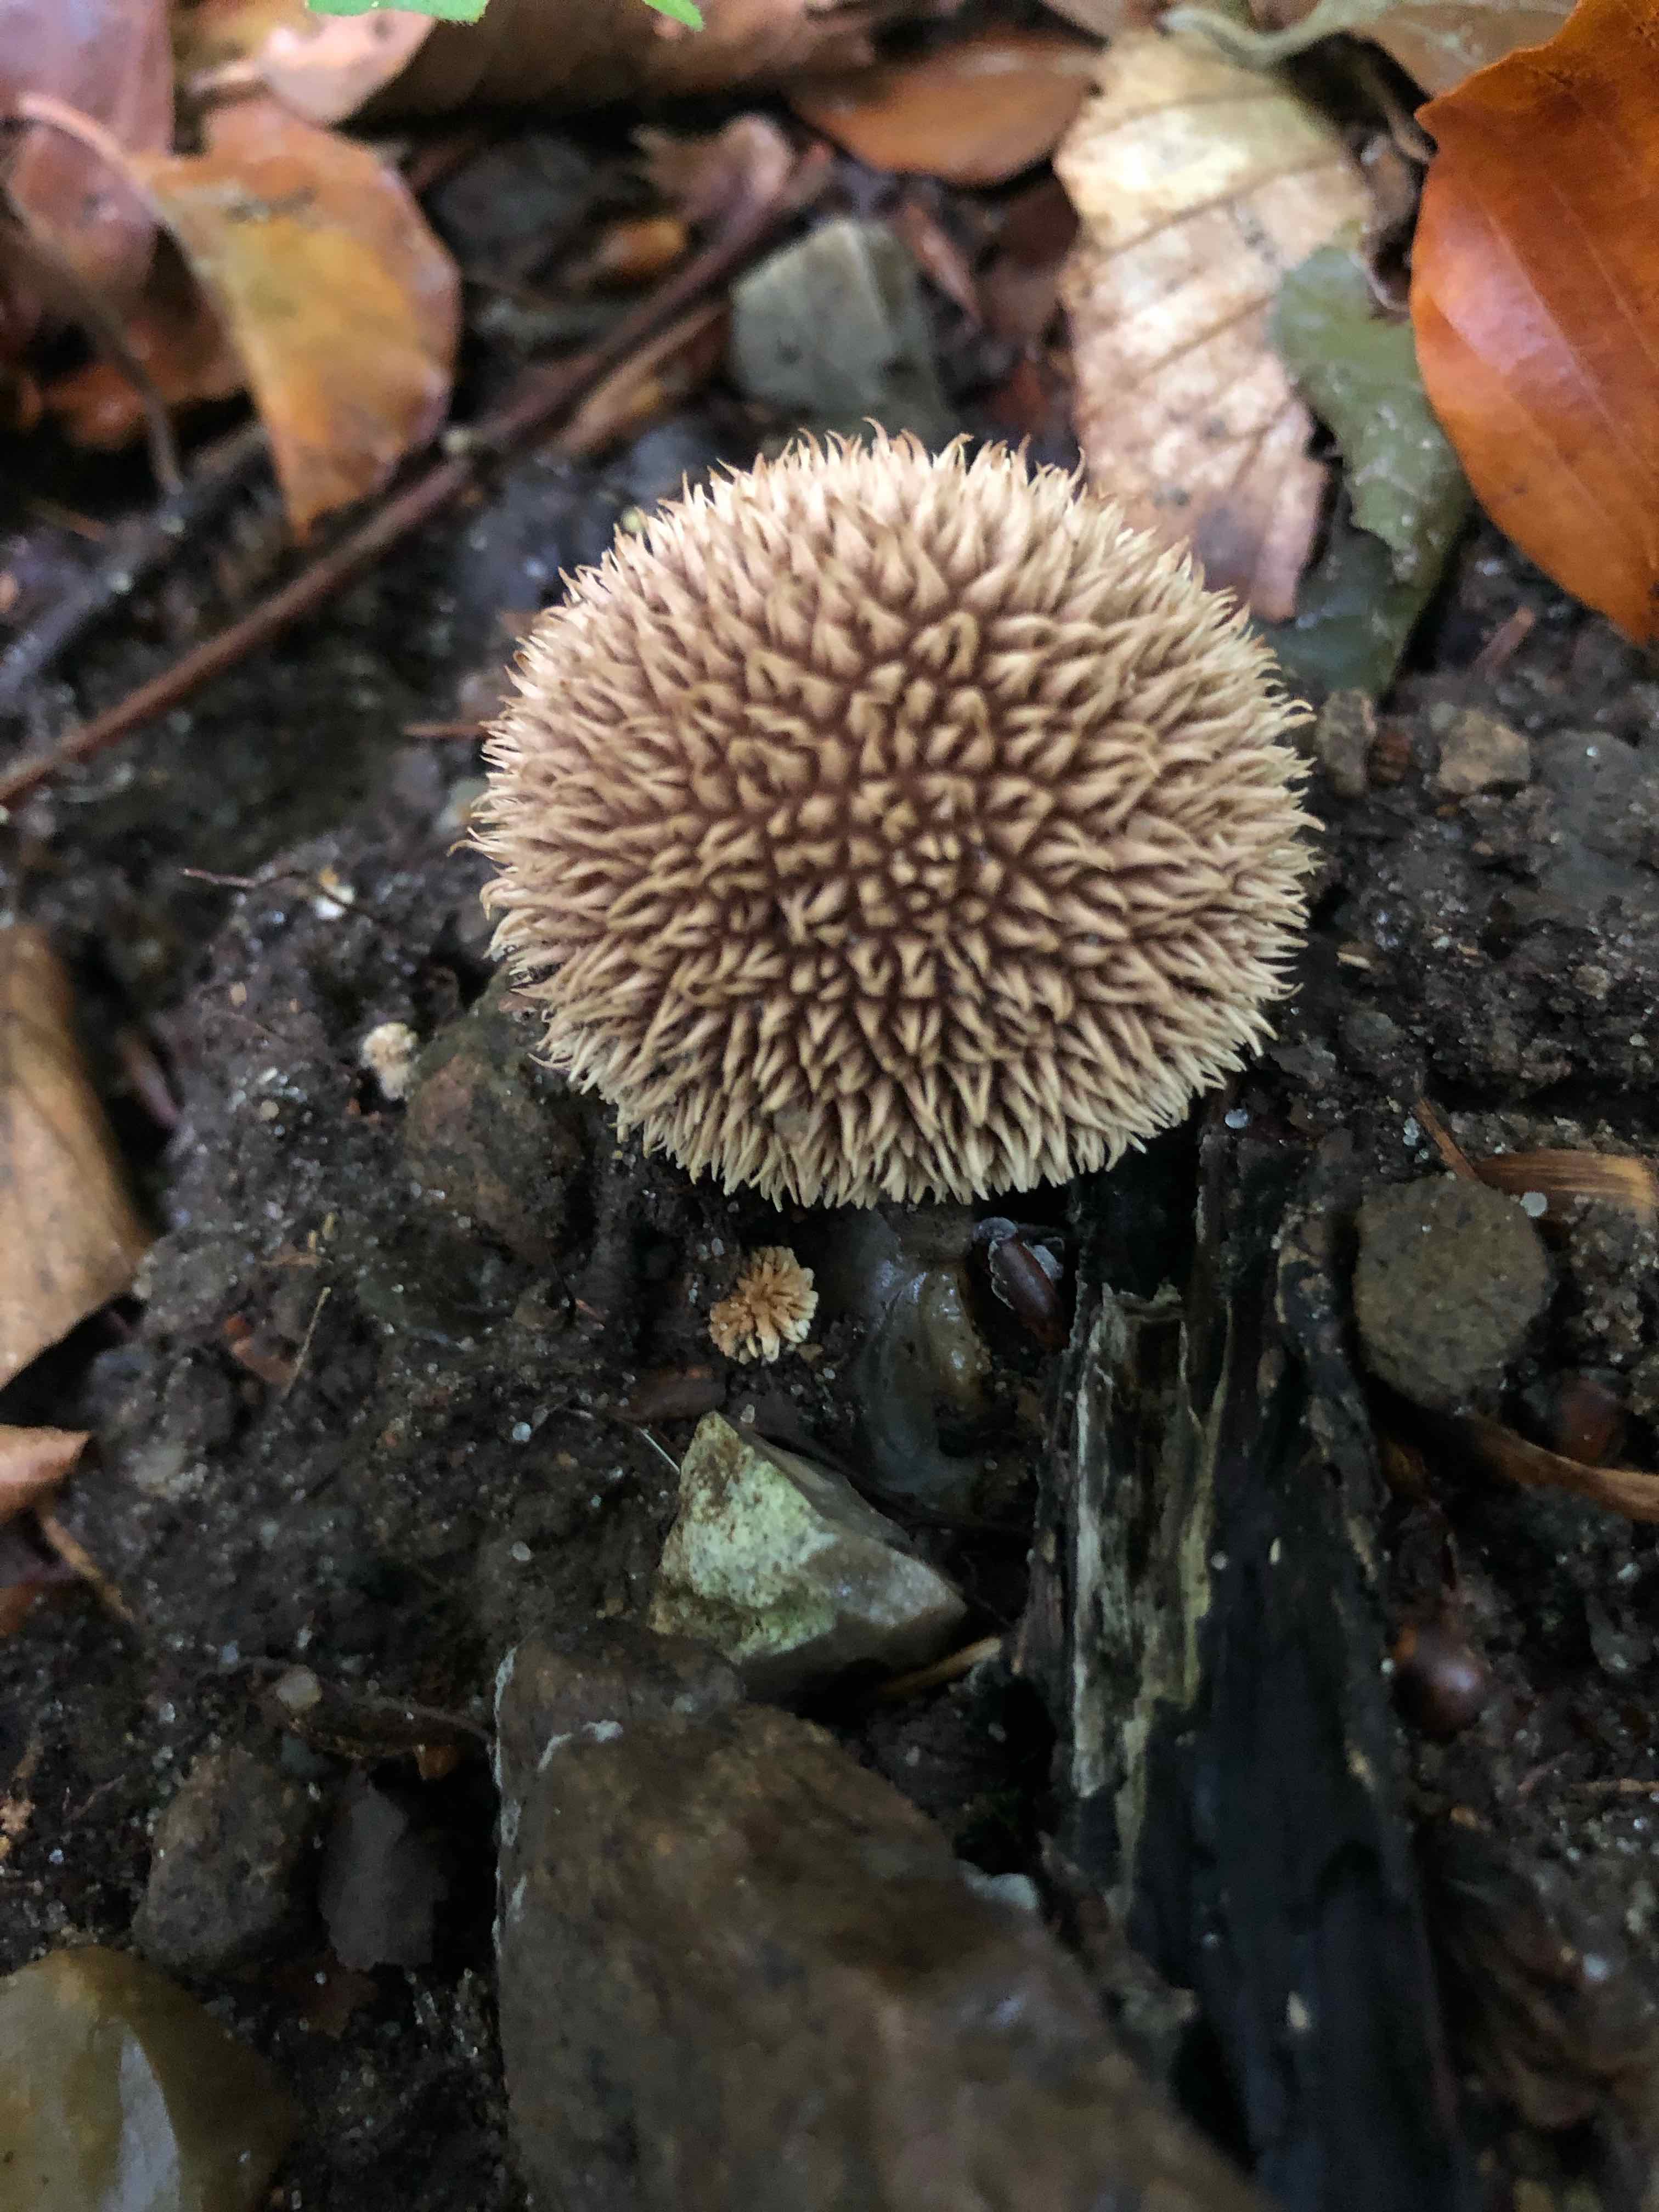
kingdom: Fungi
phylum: Basidiomycota
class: Agaricomycetes
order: Agaricales
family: Lycoperdaceae
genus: Lycoperdon
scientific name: Lycoperdon echinatum
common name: pindsvine-støvbold
